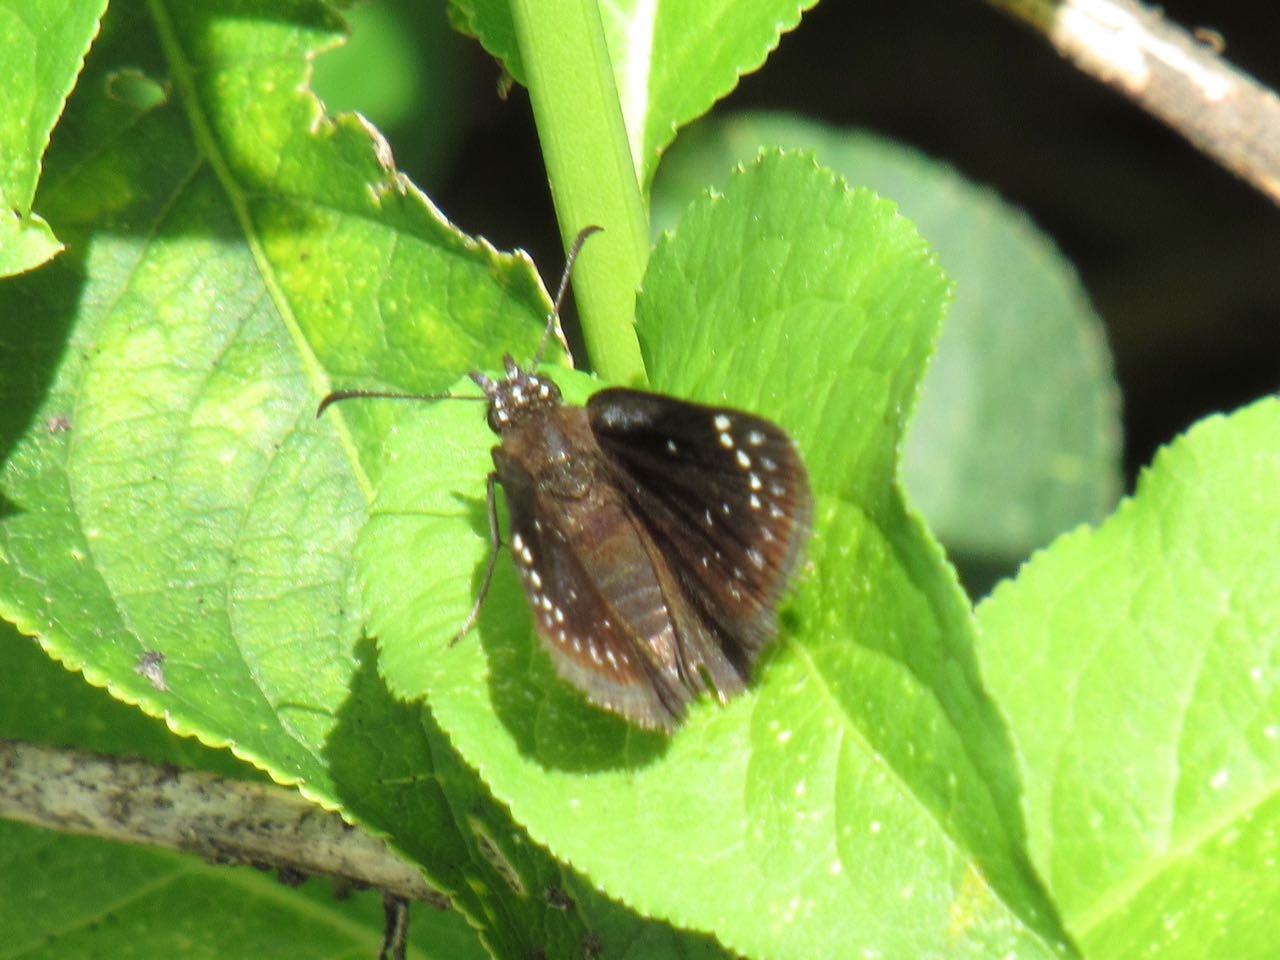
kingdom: Animalia
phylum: Arthropoda
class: Insecta
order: Lepidoptera
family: Hesperiidae
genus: Pholisora
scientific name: Pholisora catullus
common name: Common Sootywing
